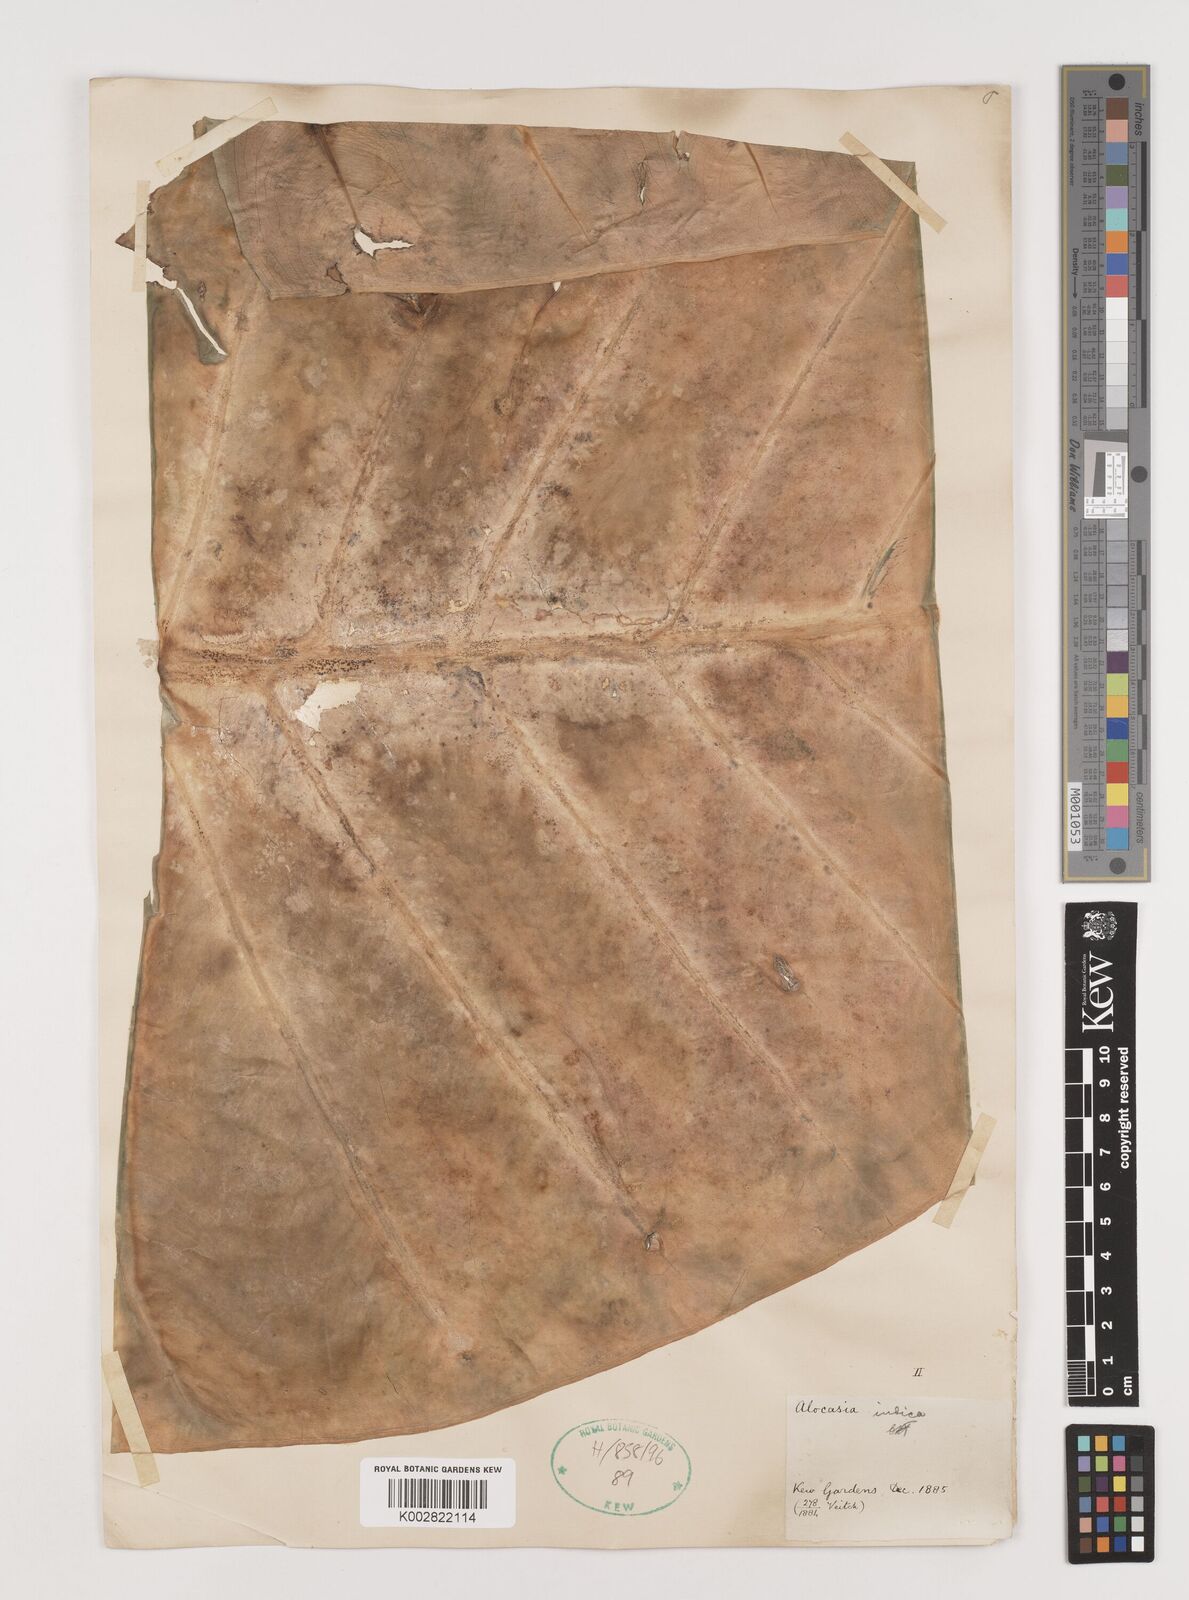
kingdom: Plantae
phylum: Tracheophyta
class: Liliopsida
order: Alismatales
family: Araceae
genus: Alocasia
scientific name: Alocasia macrorrhizos
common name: Giant taro
